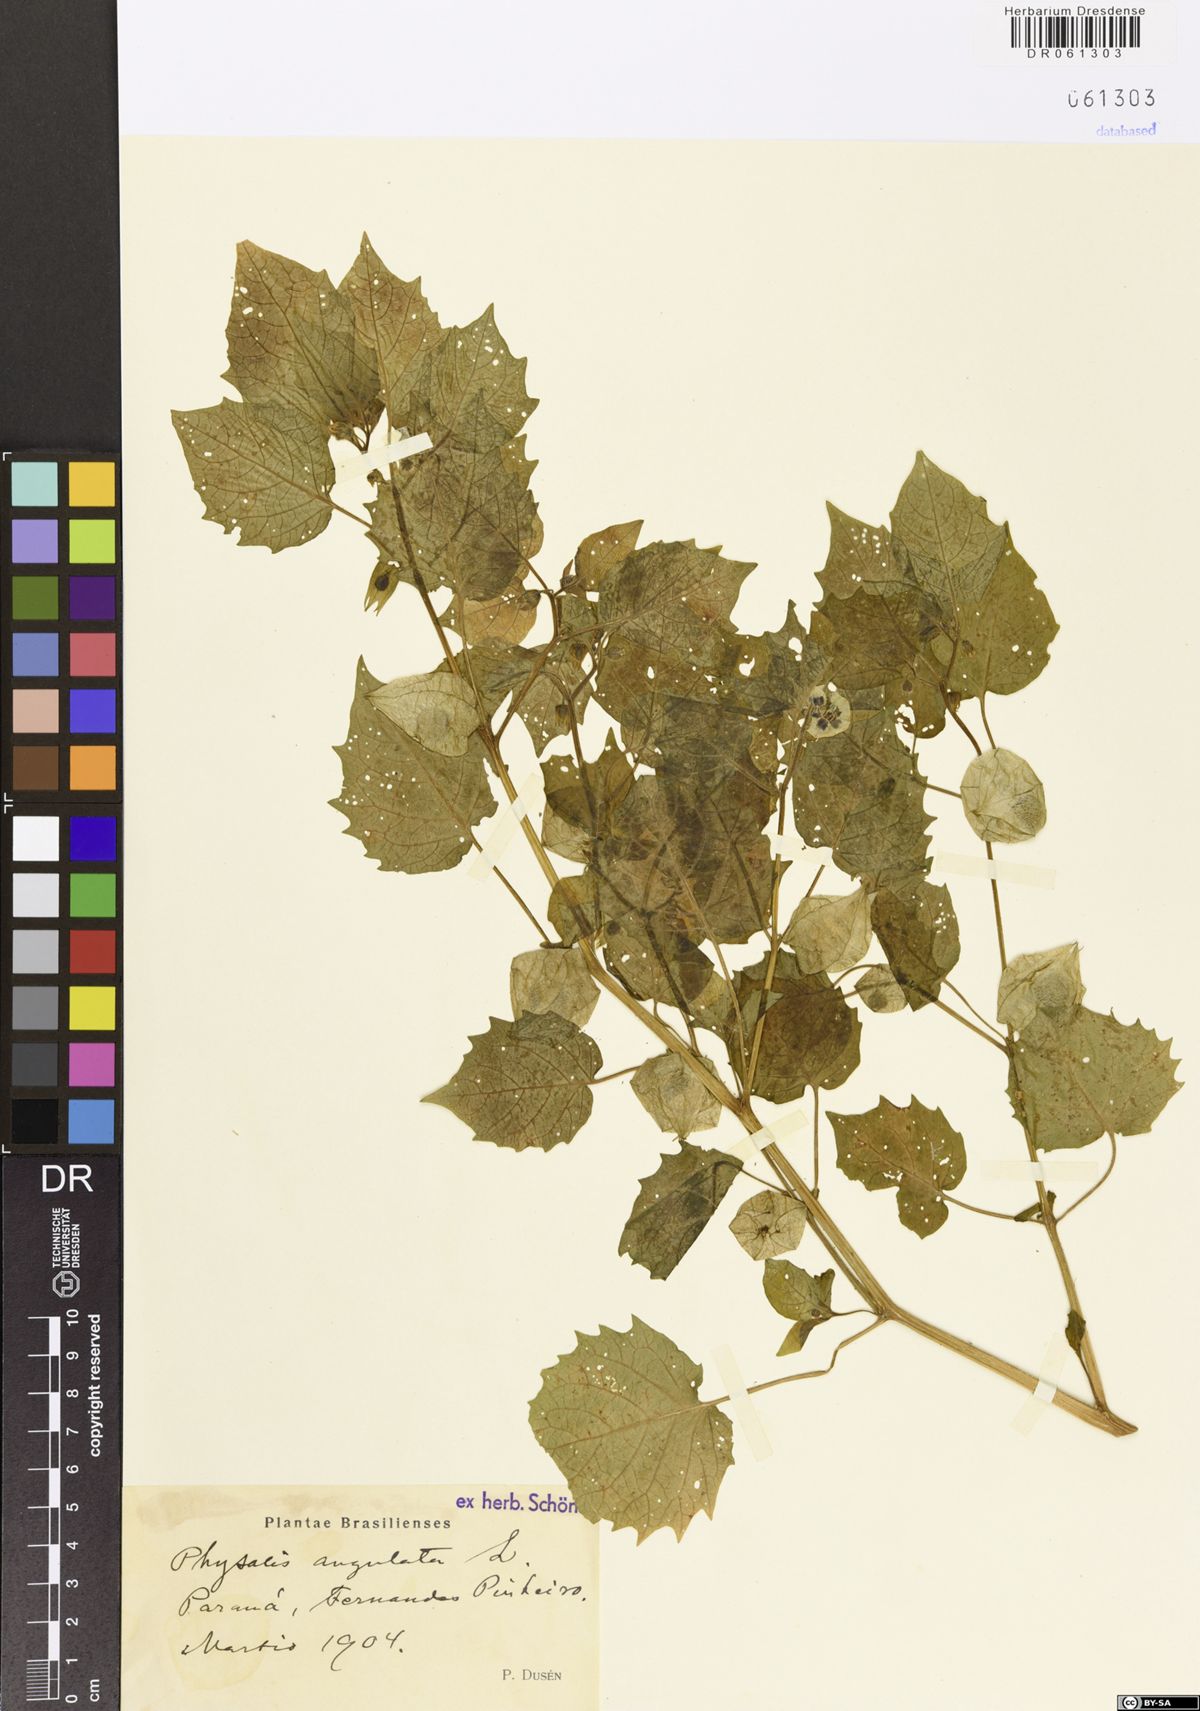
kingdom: Plantae
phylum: Tracheophyta
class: Magnoliopsida
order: Solanales
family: Solanaceae
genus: Physalis
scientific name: Physalis angulata
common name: Angular winter-cherry
